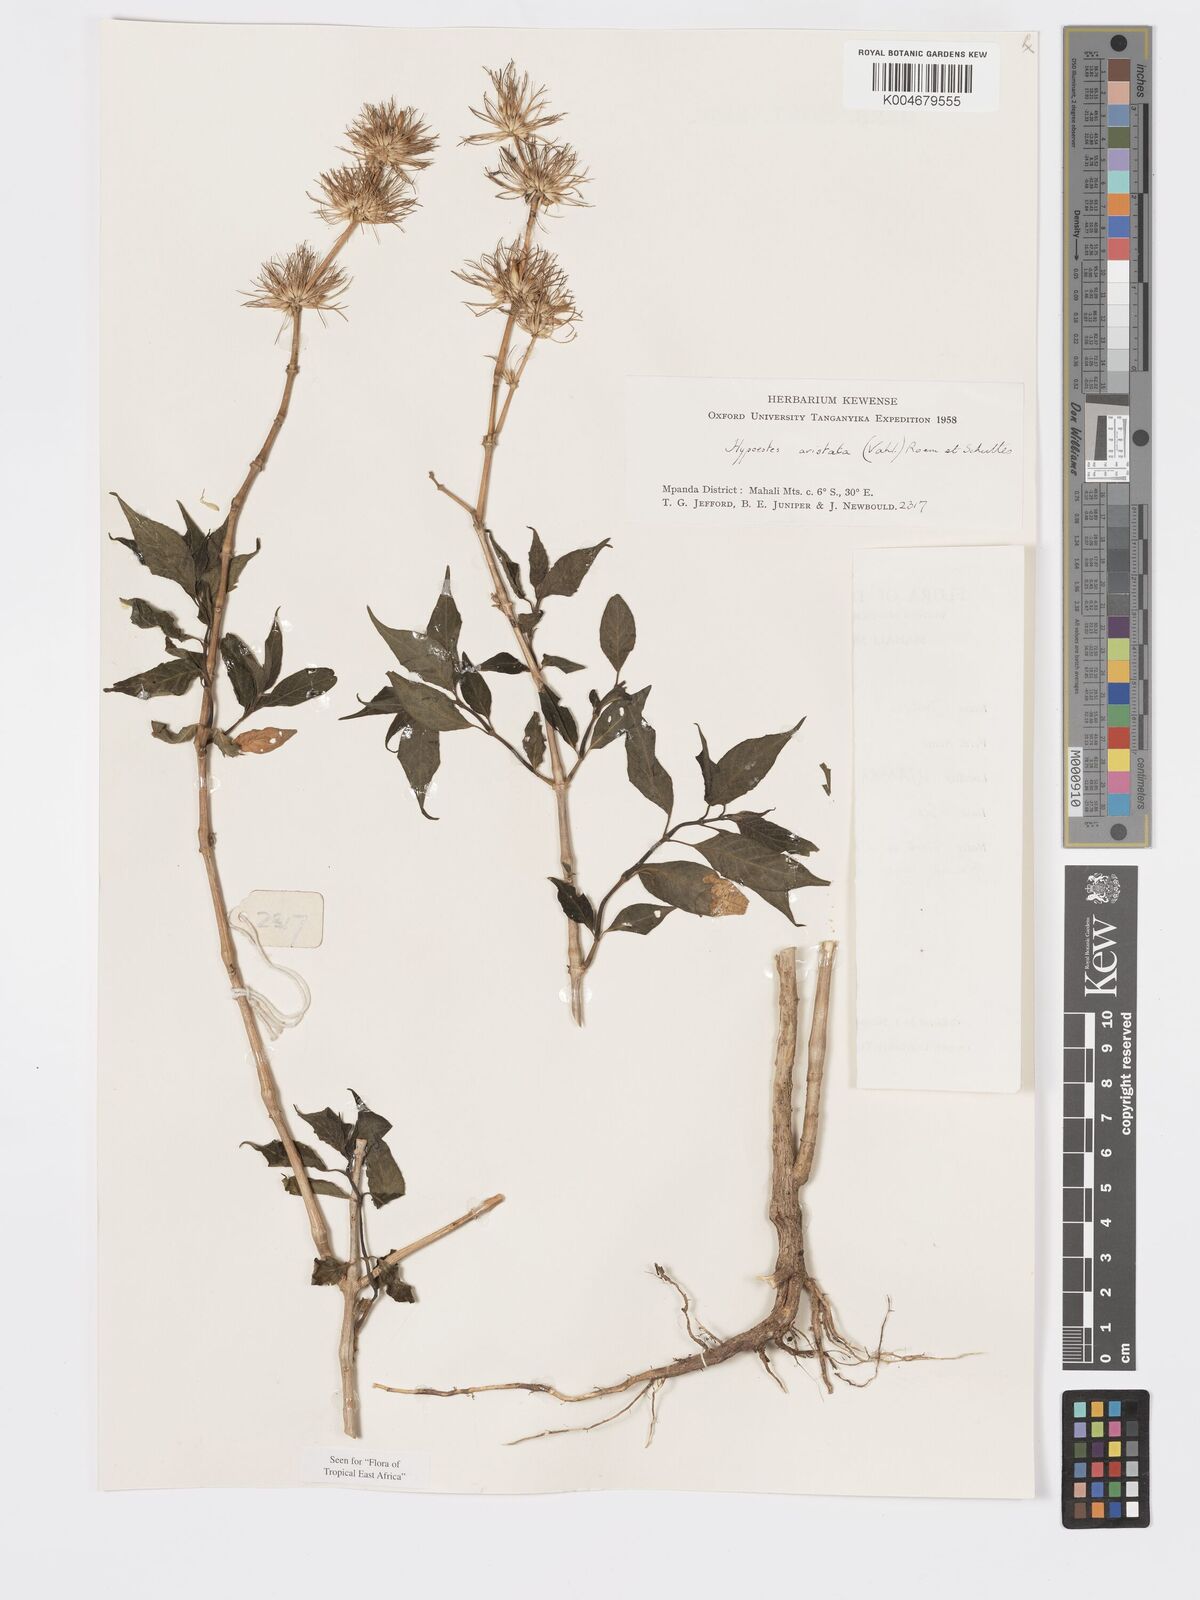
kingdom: Plantae
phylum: Tracheophyta
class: Magnoliopsida
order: Lamiales
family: Acanthaceae
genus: Hypoestes
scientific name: Hypoestes
